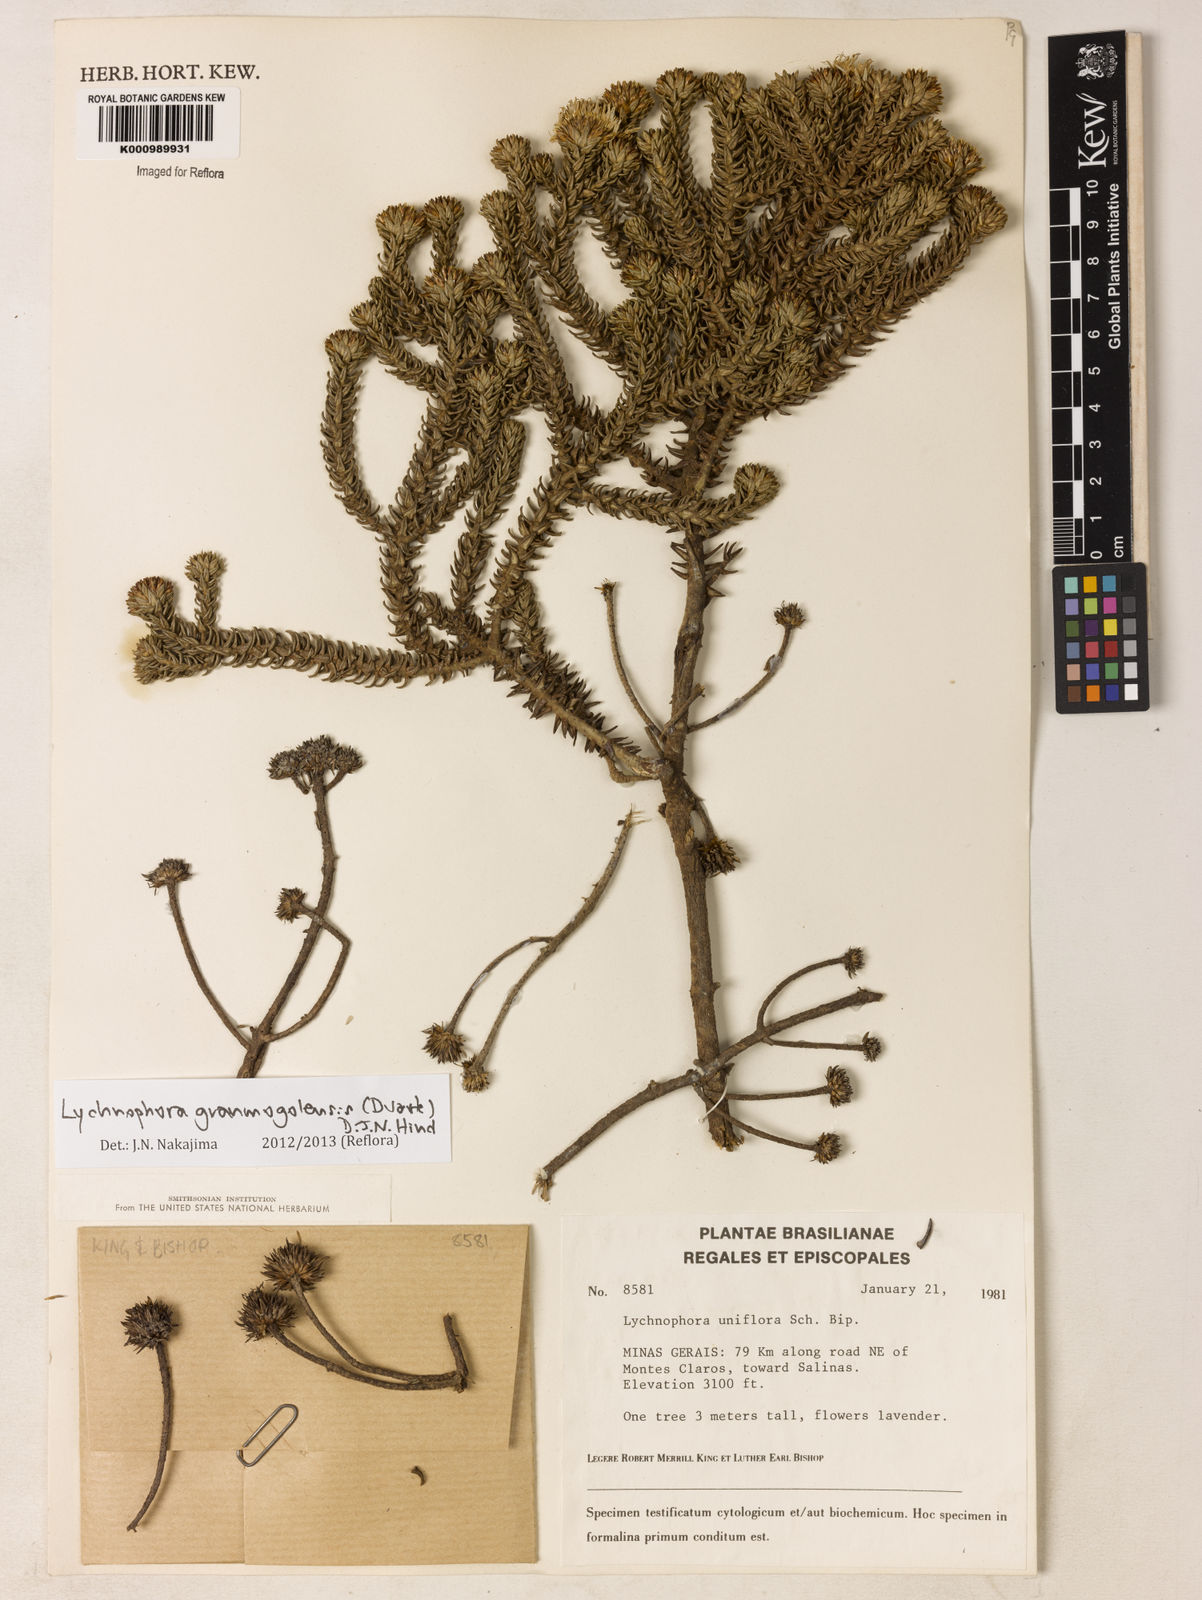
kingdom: Plantae
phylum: Tracheophyta
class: Magnoliopsida
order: Asterales
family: Asteraceae
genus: Lychnophora
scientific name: Lychnophora granmogolensis
